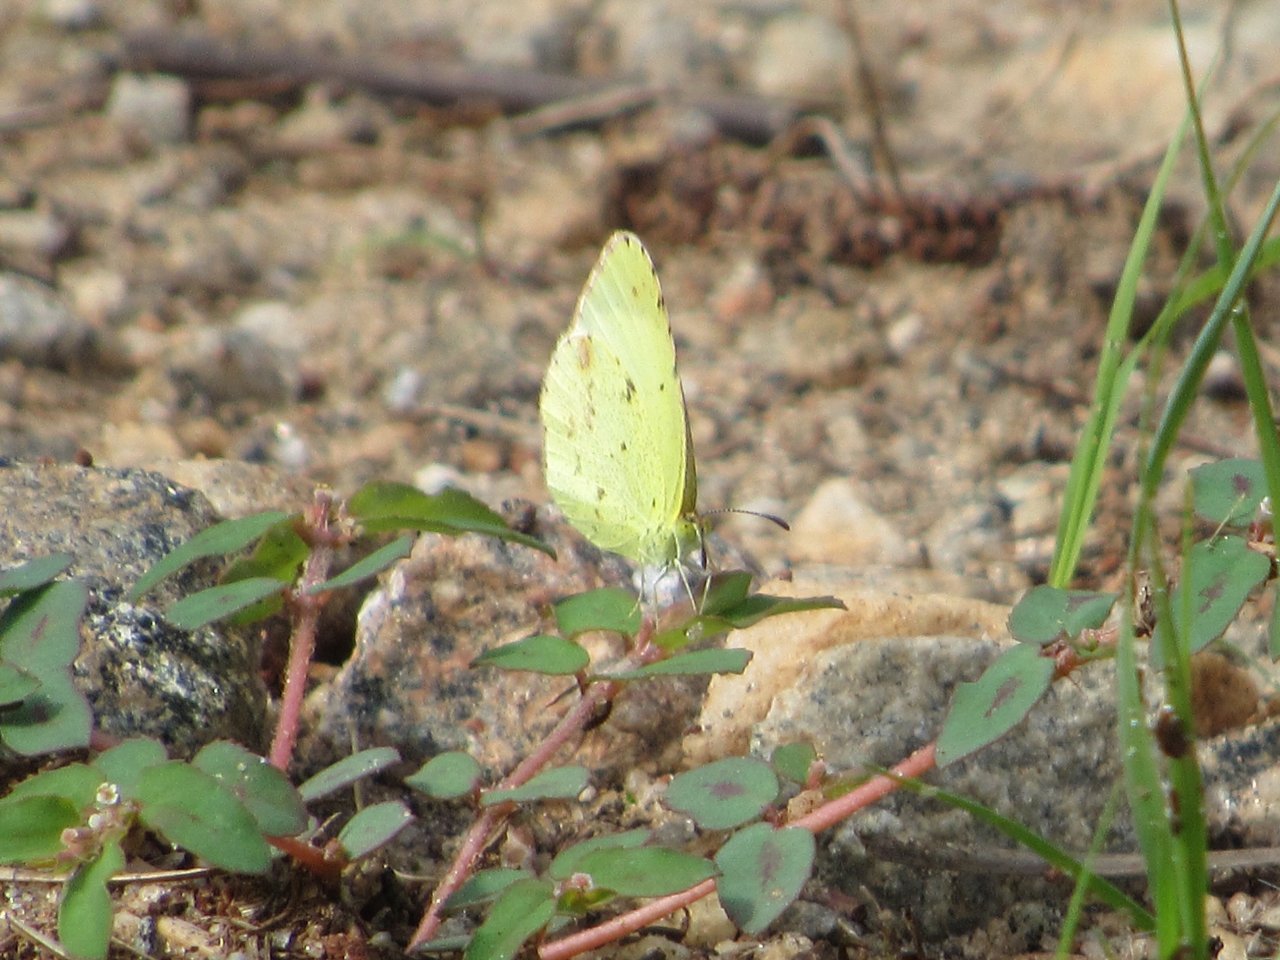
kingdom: Animalia
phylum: Arthropoda
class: Insecta
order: Lepidoptera
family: Pieridae
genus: Pyrisitia
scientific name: Pyrisitia lisa
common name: Little Yellow
